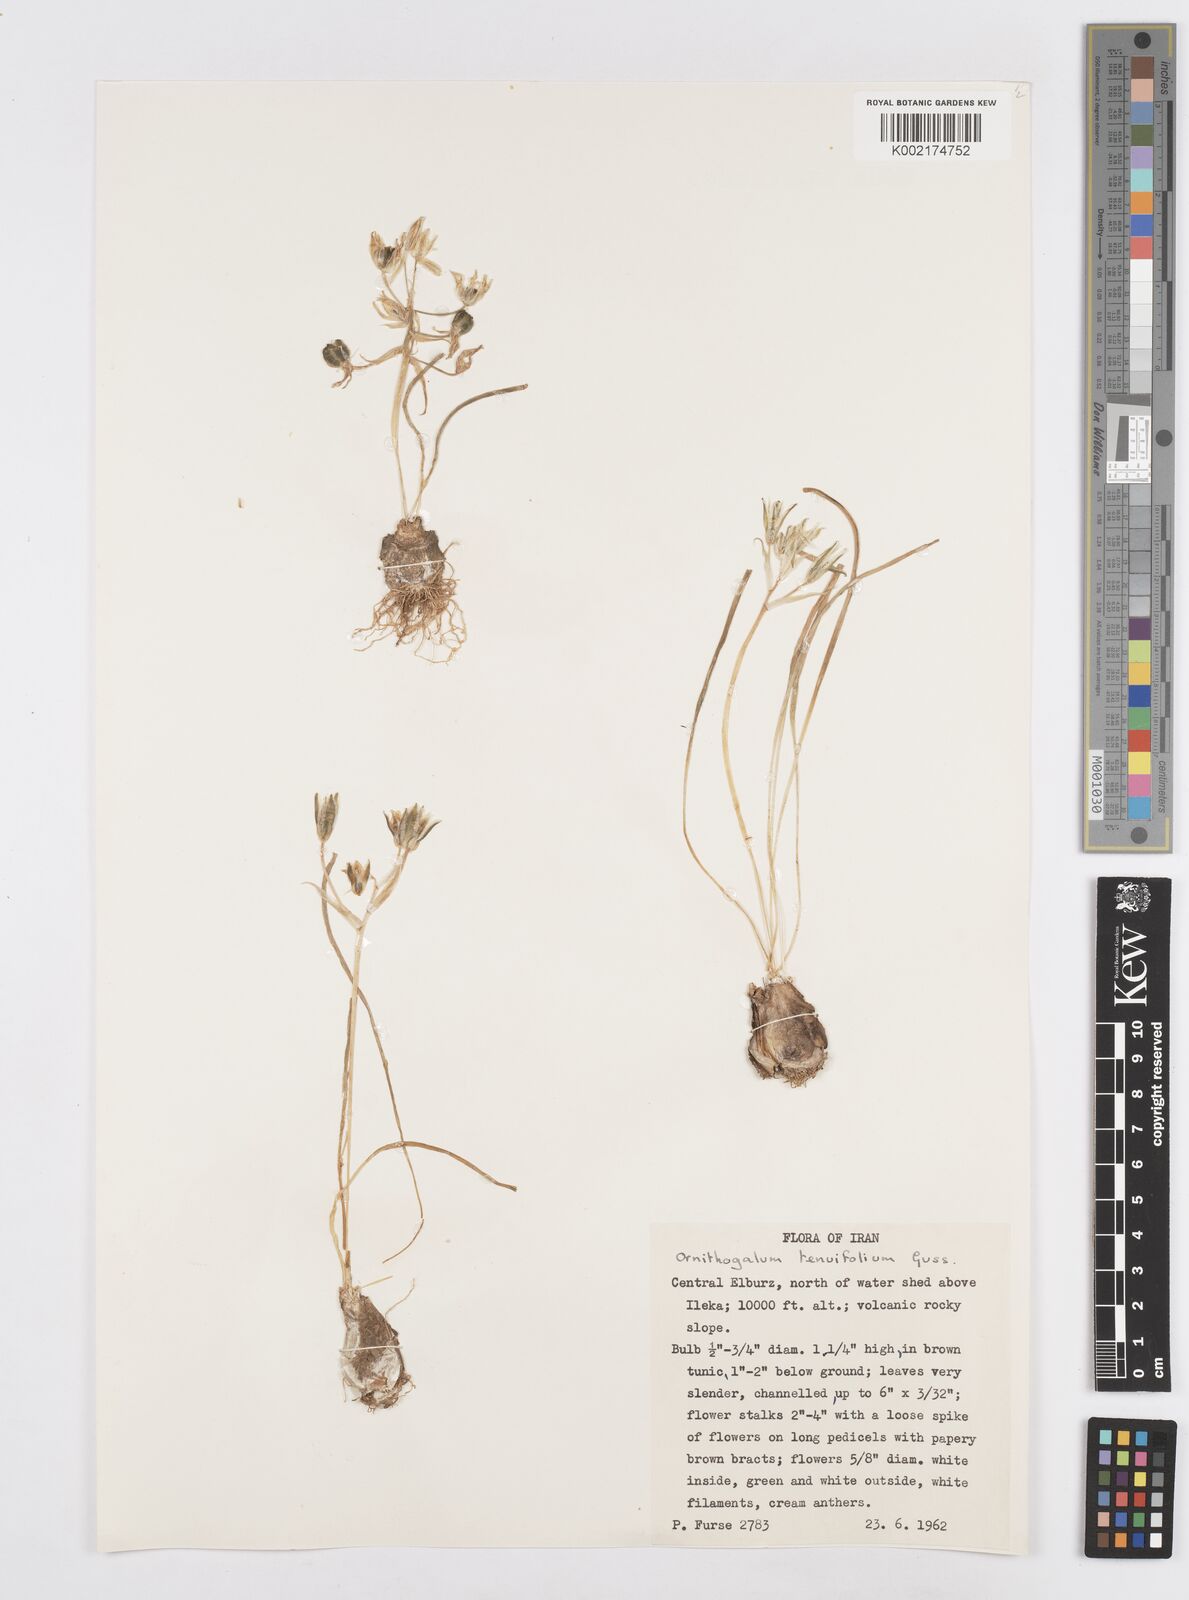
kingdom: Plantae
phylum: Tracheophyta
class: Liliopsida
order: Asparagales
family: Asparagaceae
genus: Ornithogalum
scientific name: Ornithogalum gussonei
